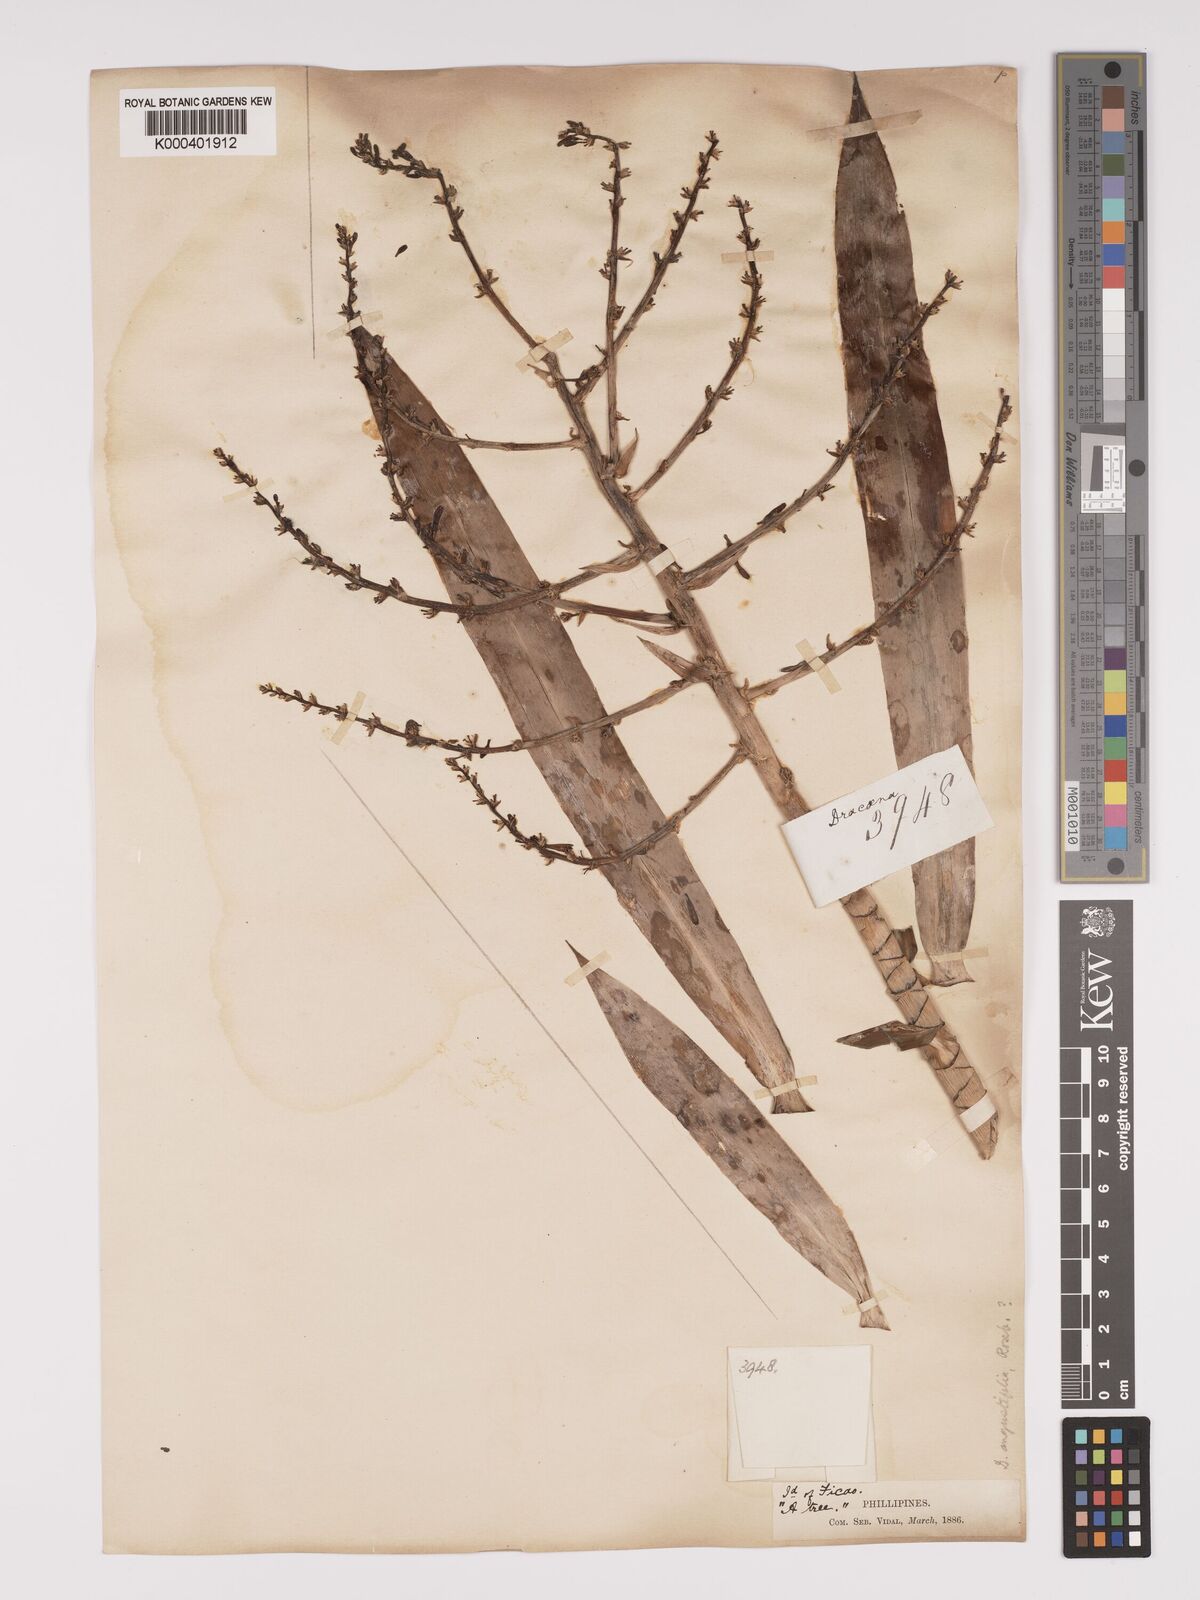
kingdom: Plantae
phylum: Tracheophyta
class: Liliopsida
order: Asparagales
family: Asparagaceae
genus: Dracaena
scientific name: Dracaena angustifolia
